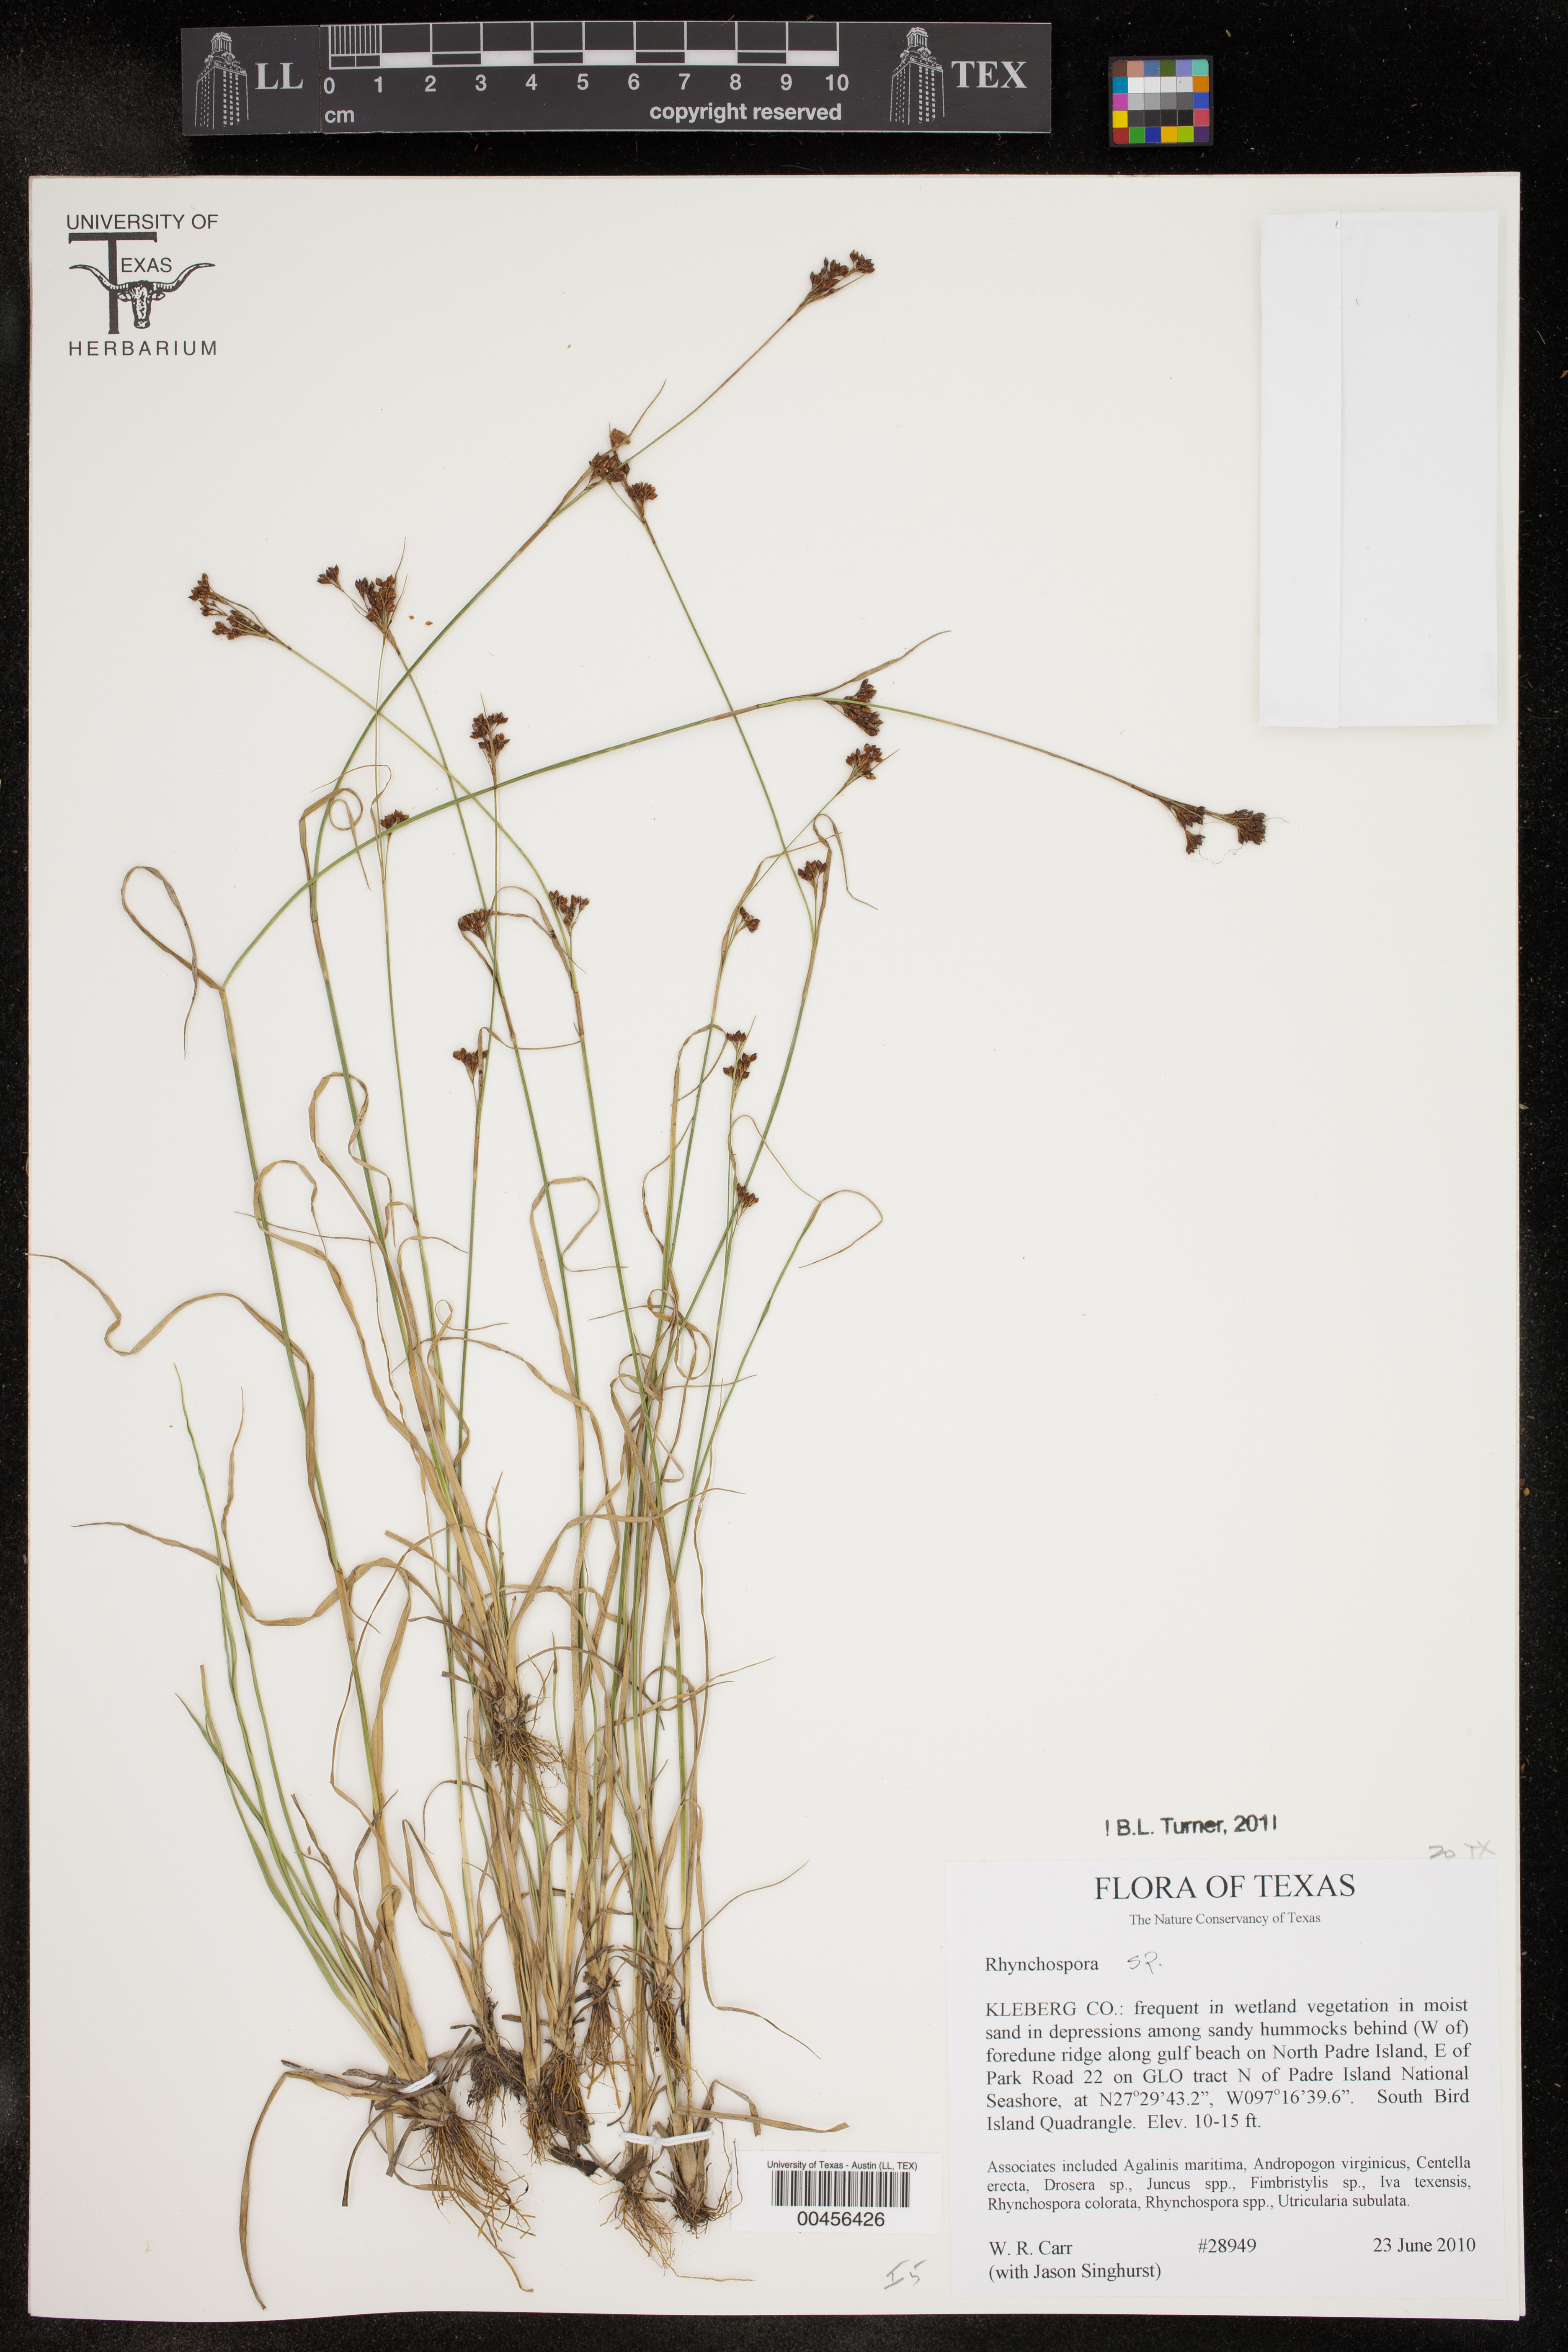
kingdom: Plantae
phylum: Tracheophyta
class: Liliopsida
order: Poales
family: Cyperaceae
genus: Rhynchospora
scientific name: Rhynchospora
